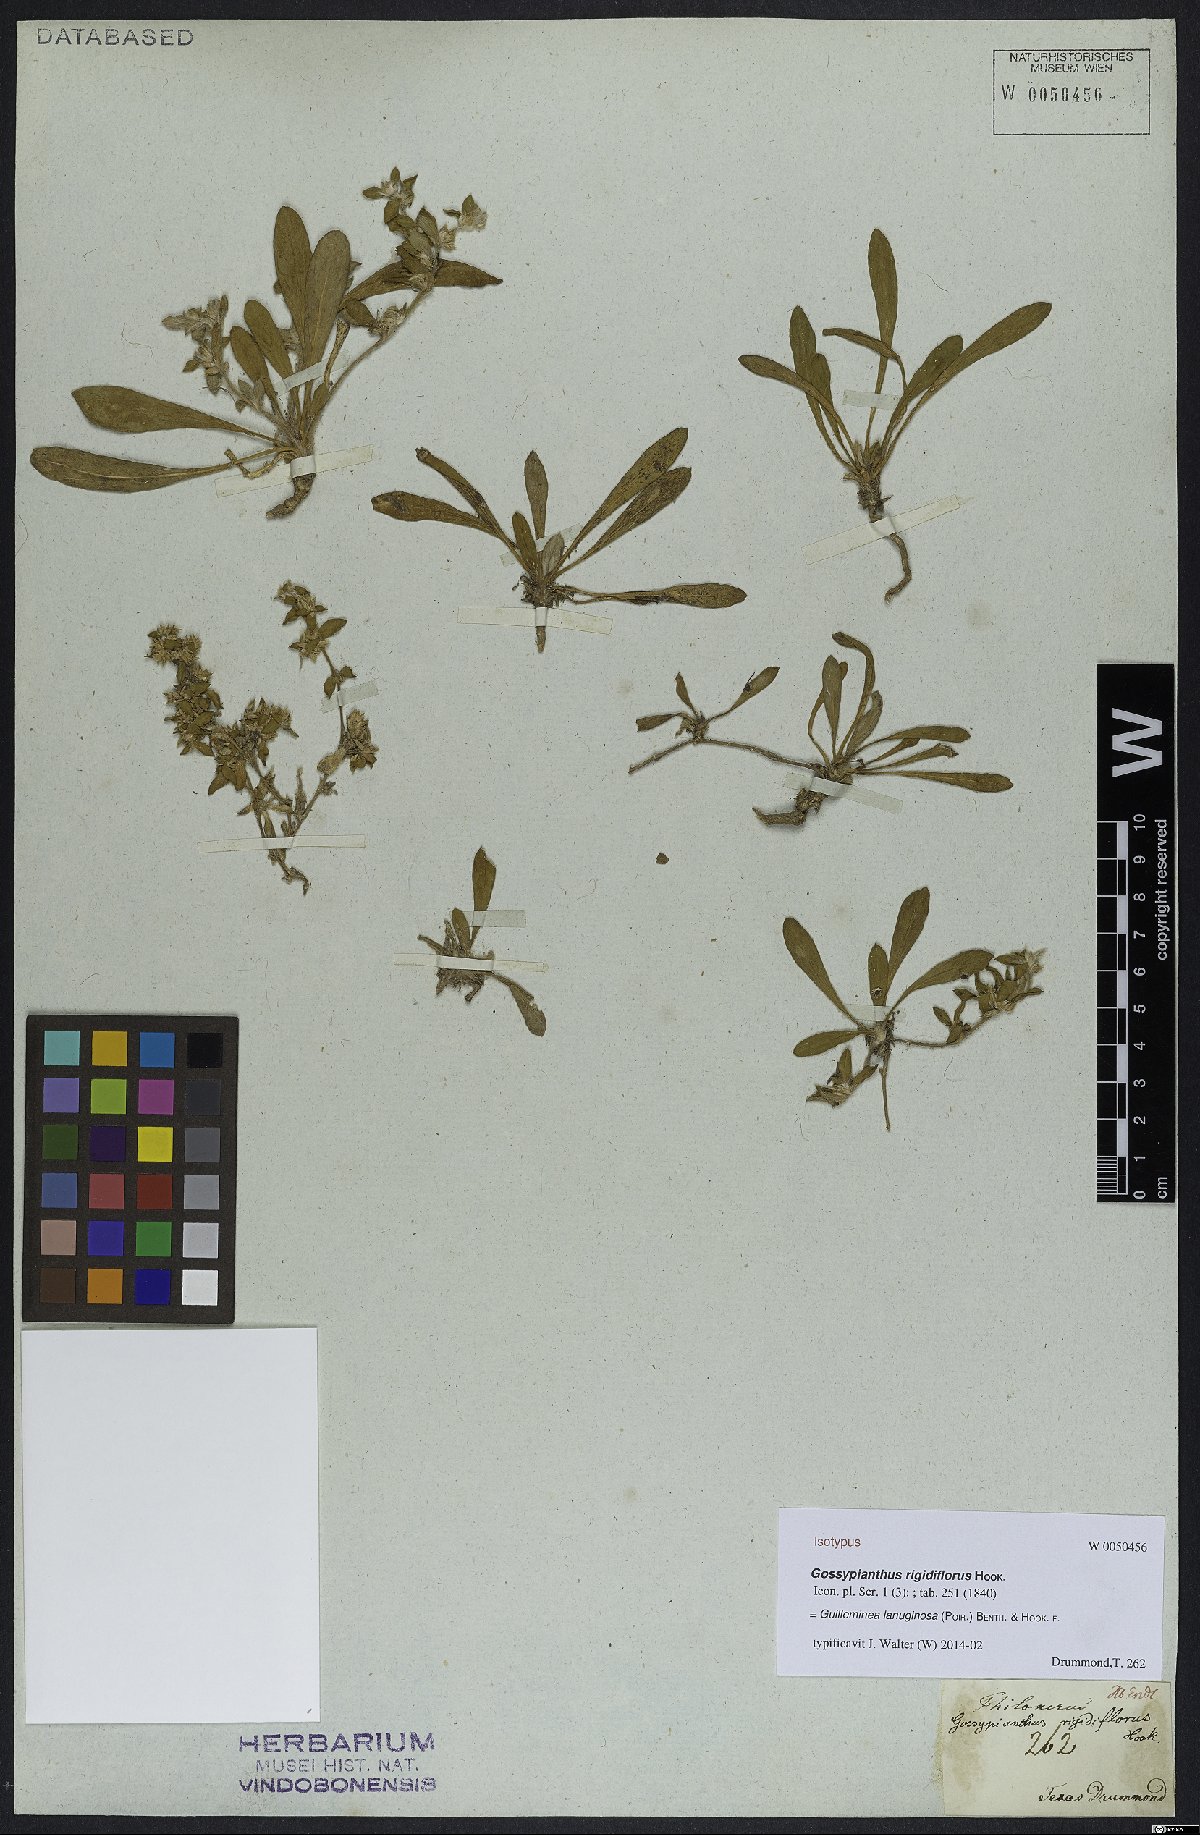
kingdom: Plantae
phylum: Tracheophyta
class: Magnoliopsida
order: Caryophyllales
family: Amaranthaceae
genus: Gomphrena
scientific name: Gomphrena lanuparonychioides
